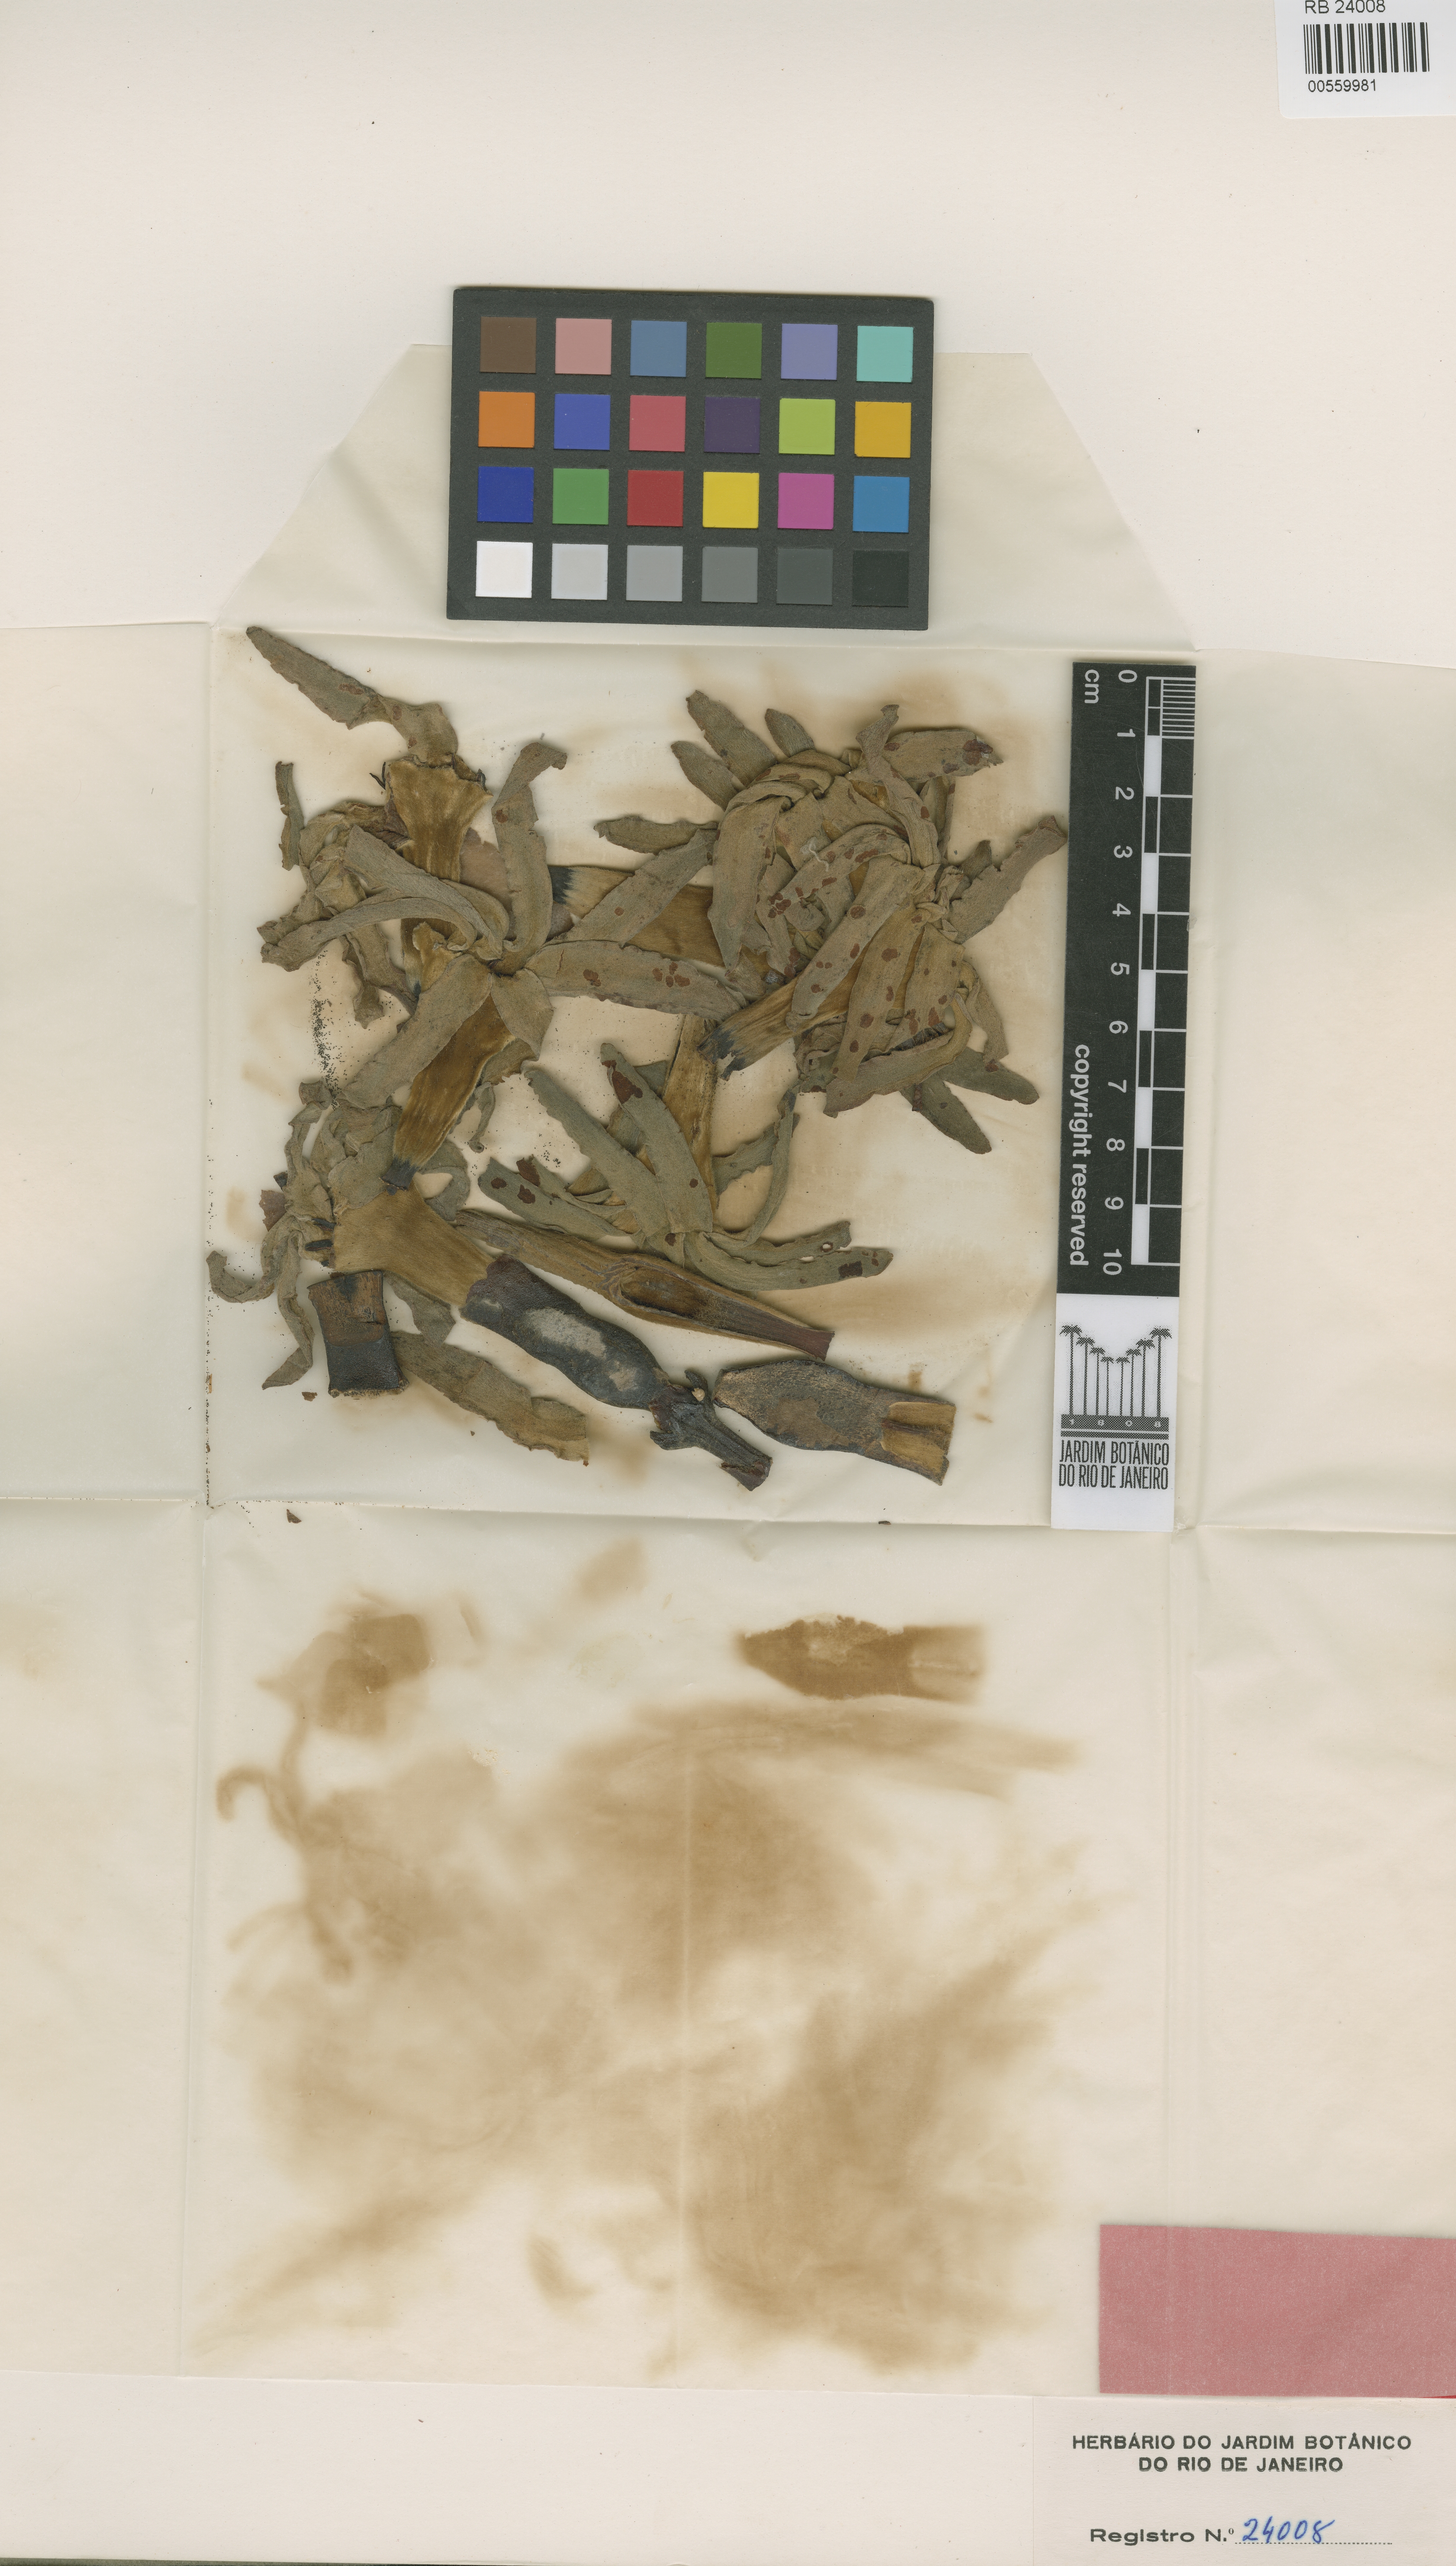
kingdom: Plantae
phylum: Tracheophyta
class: Magnoliopsida
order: Gentianales
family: Rubiaceae
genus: Kutchubaea
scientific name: Kutchubaea sericantha
